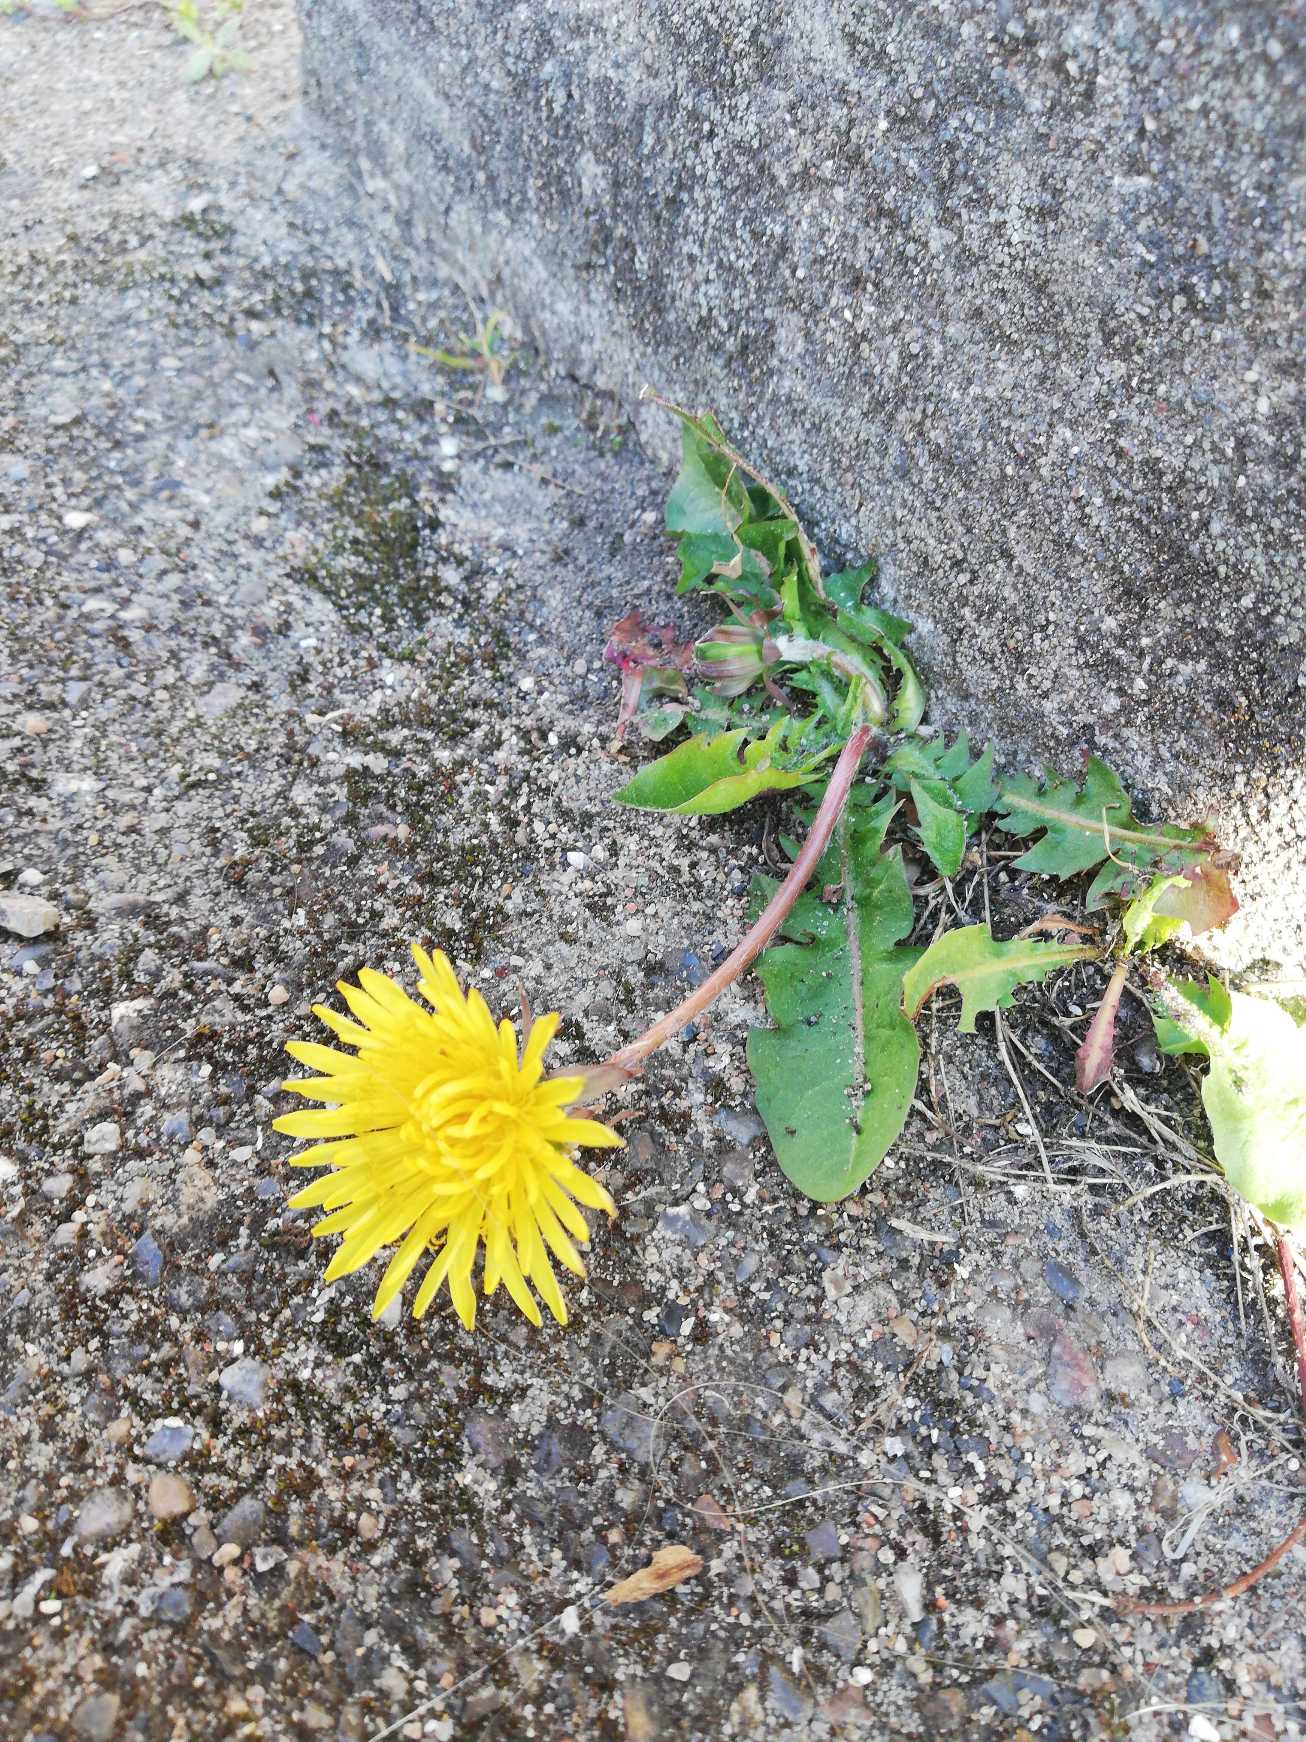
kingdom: Plantae
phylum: Tracheophyta
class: Magnoliopsida
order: Asterales
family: Asteraceae
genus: Taraxacum
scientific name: Taraxacum
